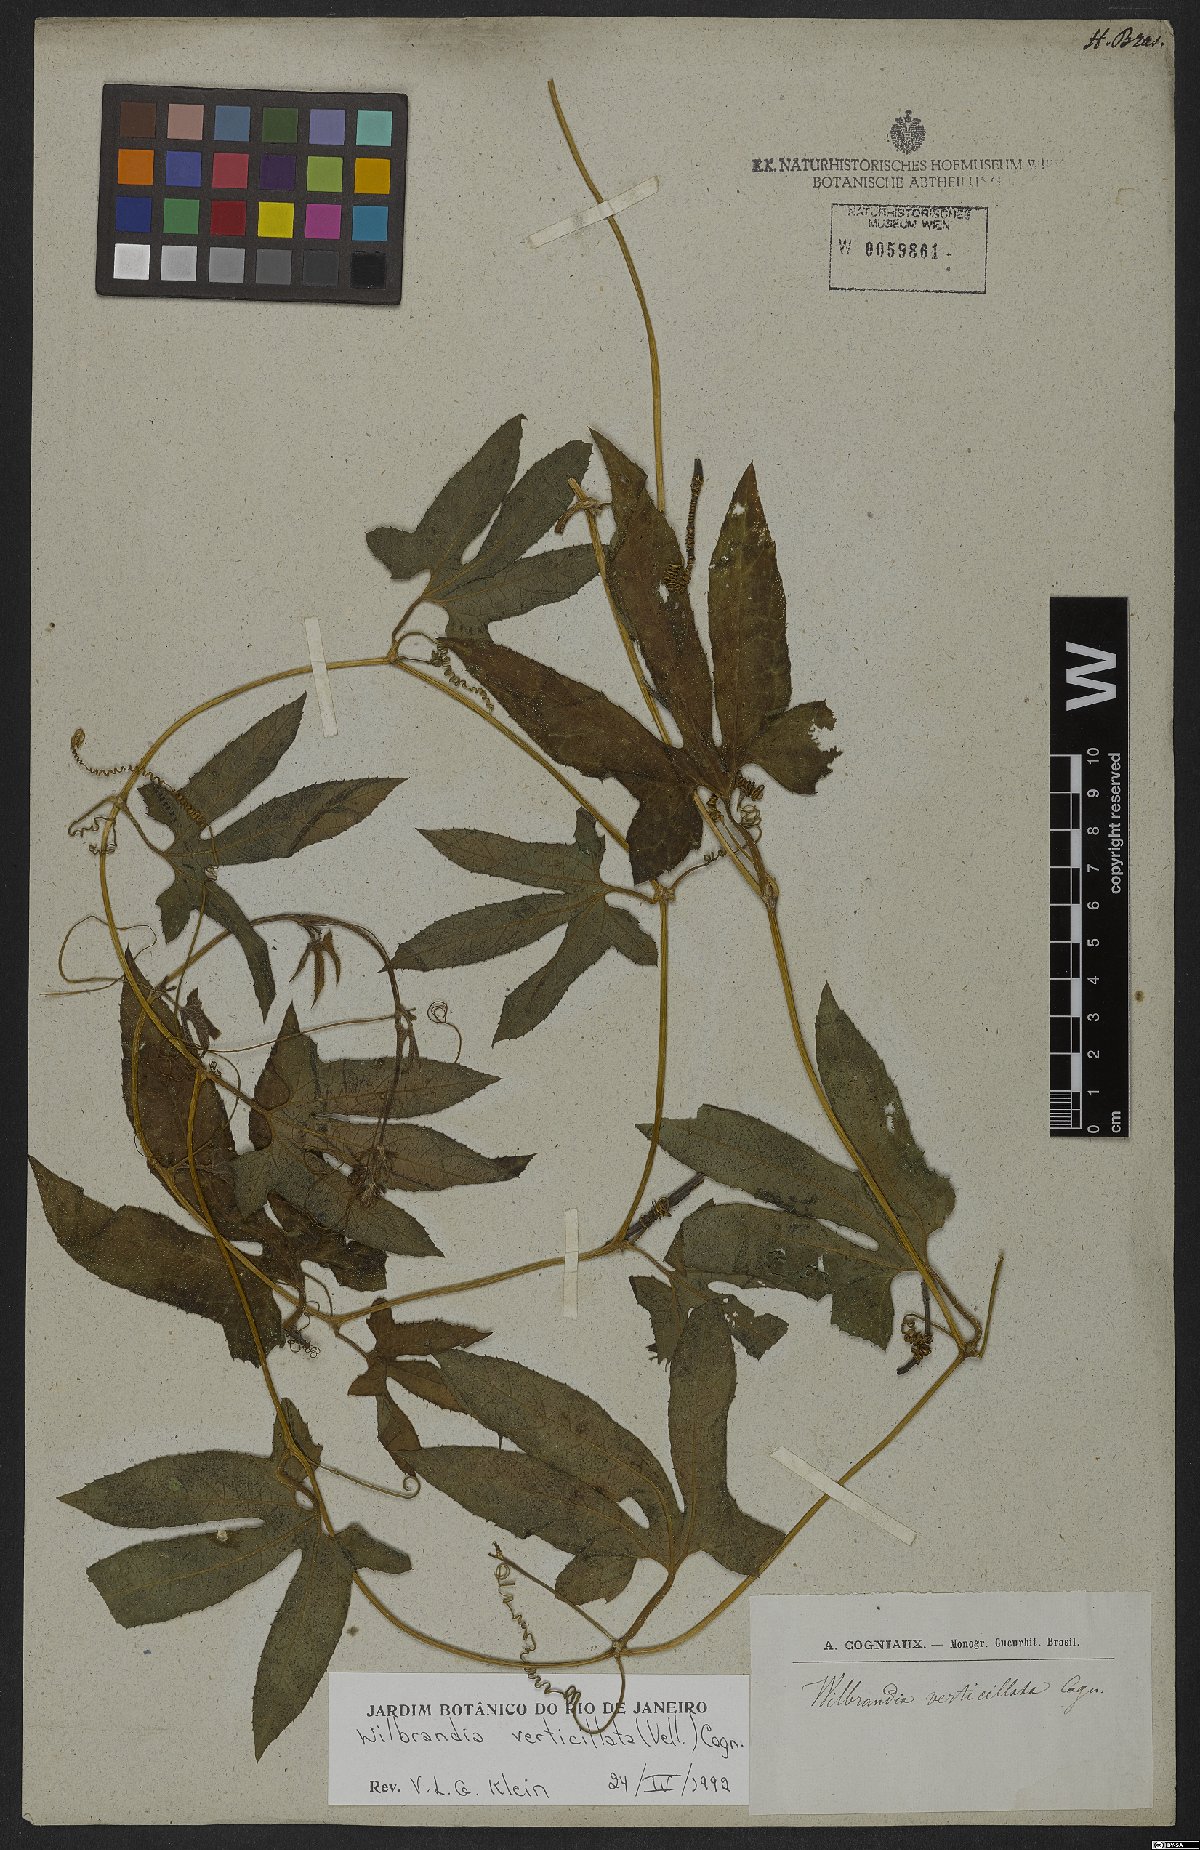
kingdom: Plantae
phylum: Tracheophyta
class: Magnoliopsida
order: Cucurbitales
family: Cucurbitaceae
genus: Wilbrandia
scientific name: Wilbrandia verticillata
